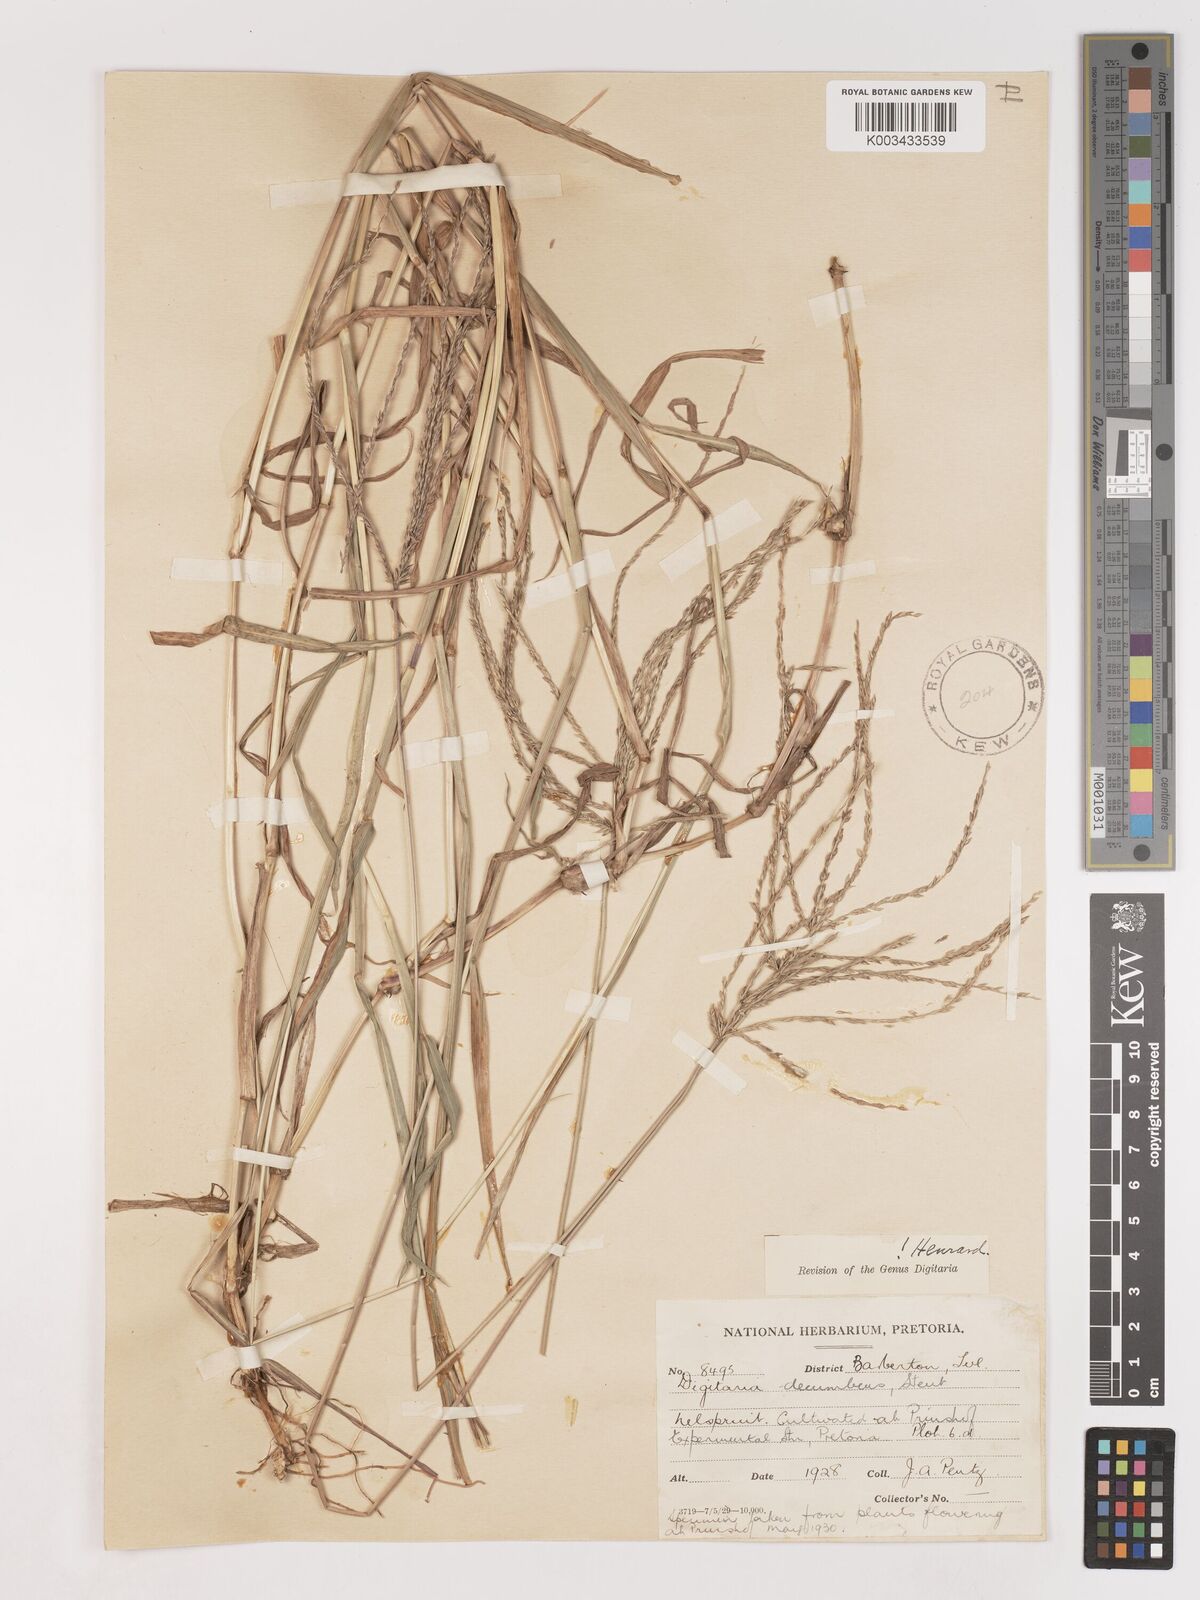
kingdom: Plantae
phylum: Tracheophyta
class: Liliopsida
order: Poales
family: Poaceae
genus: Digitaria
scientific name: Digitaria eriantha
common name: Digitgrass
